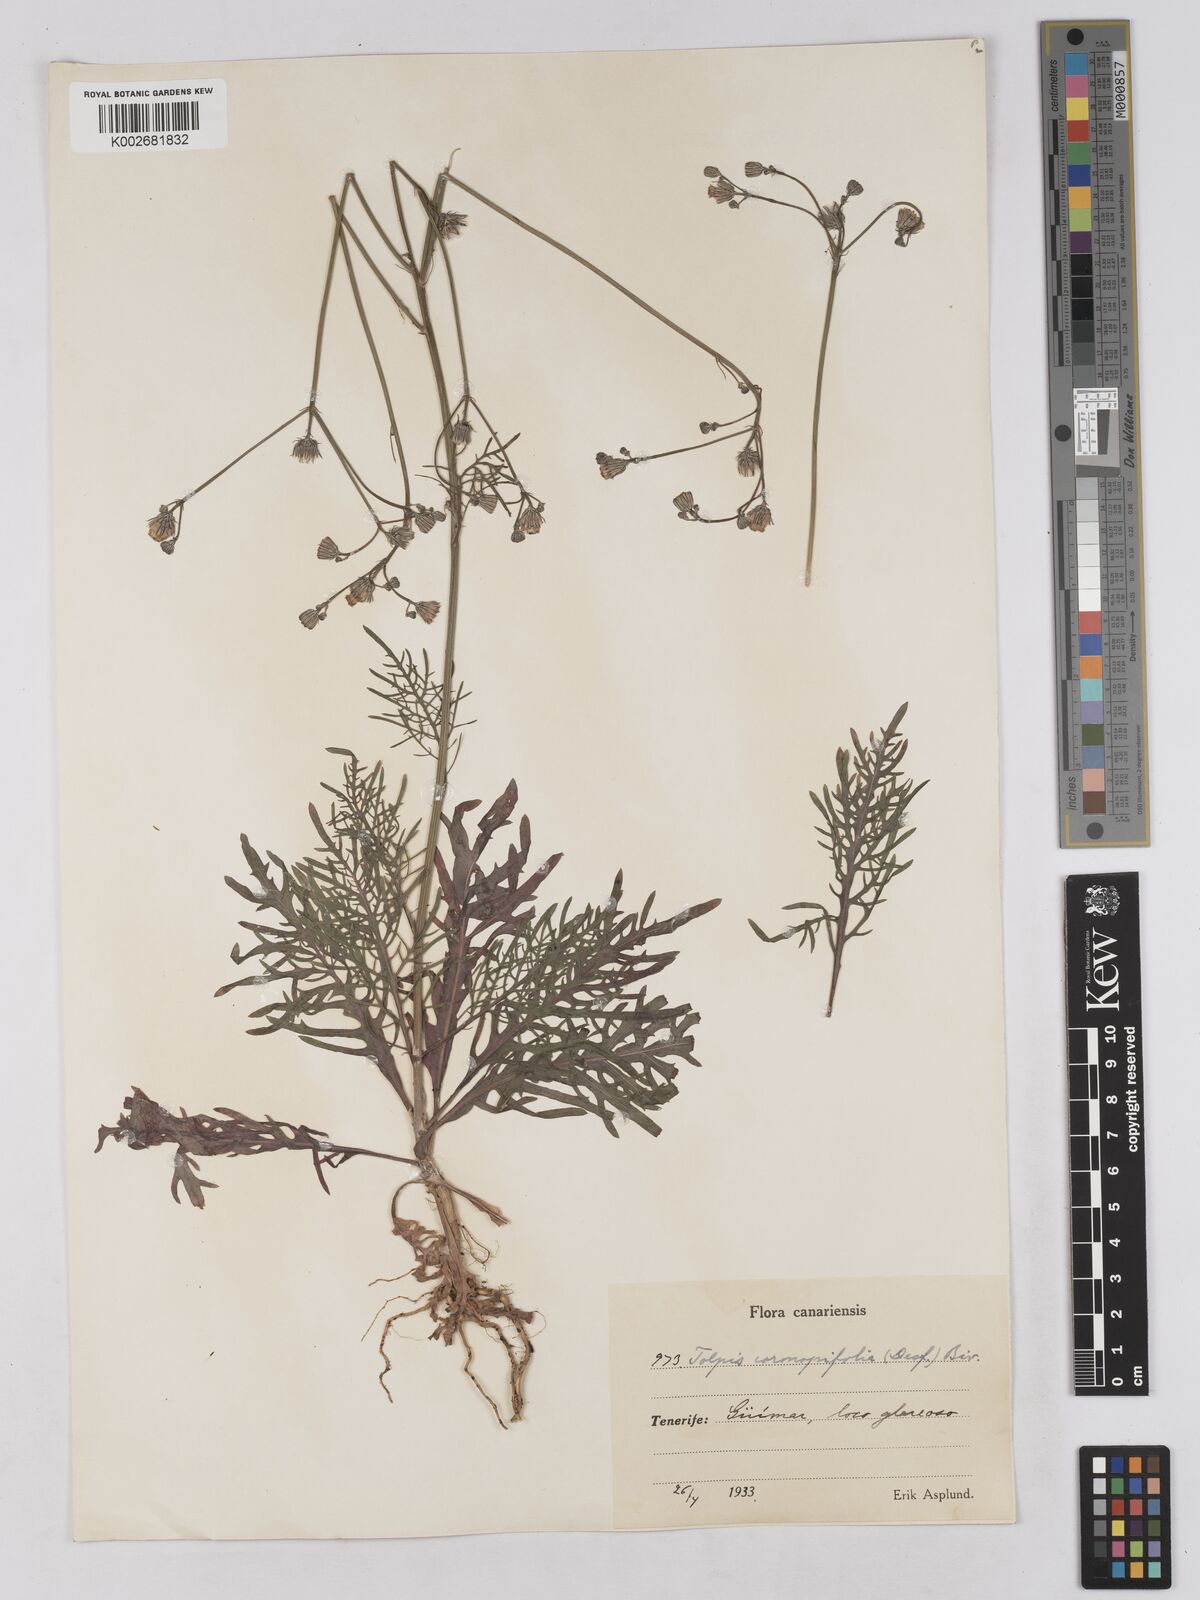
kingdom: Plantae
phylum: Tracheophyta
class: Magnoliopsida
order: Asterales
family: Asteraceae
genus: Tolpis
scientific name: Tolpis coronopifolia
